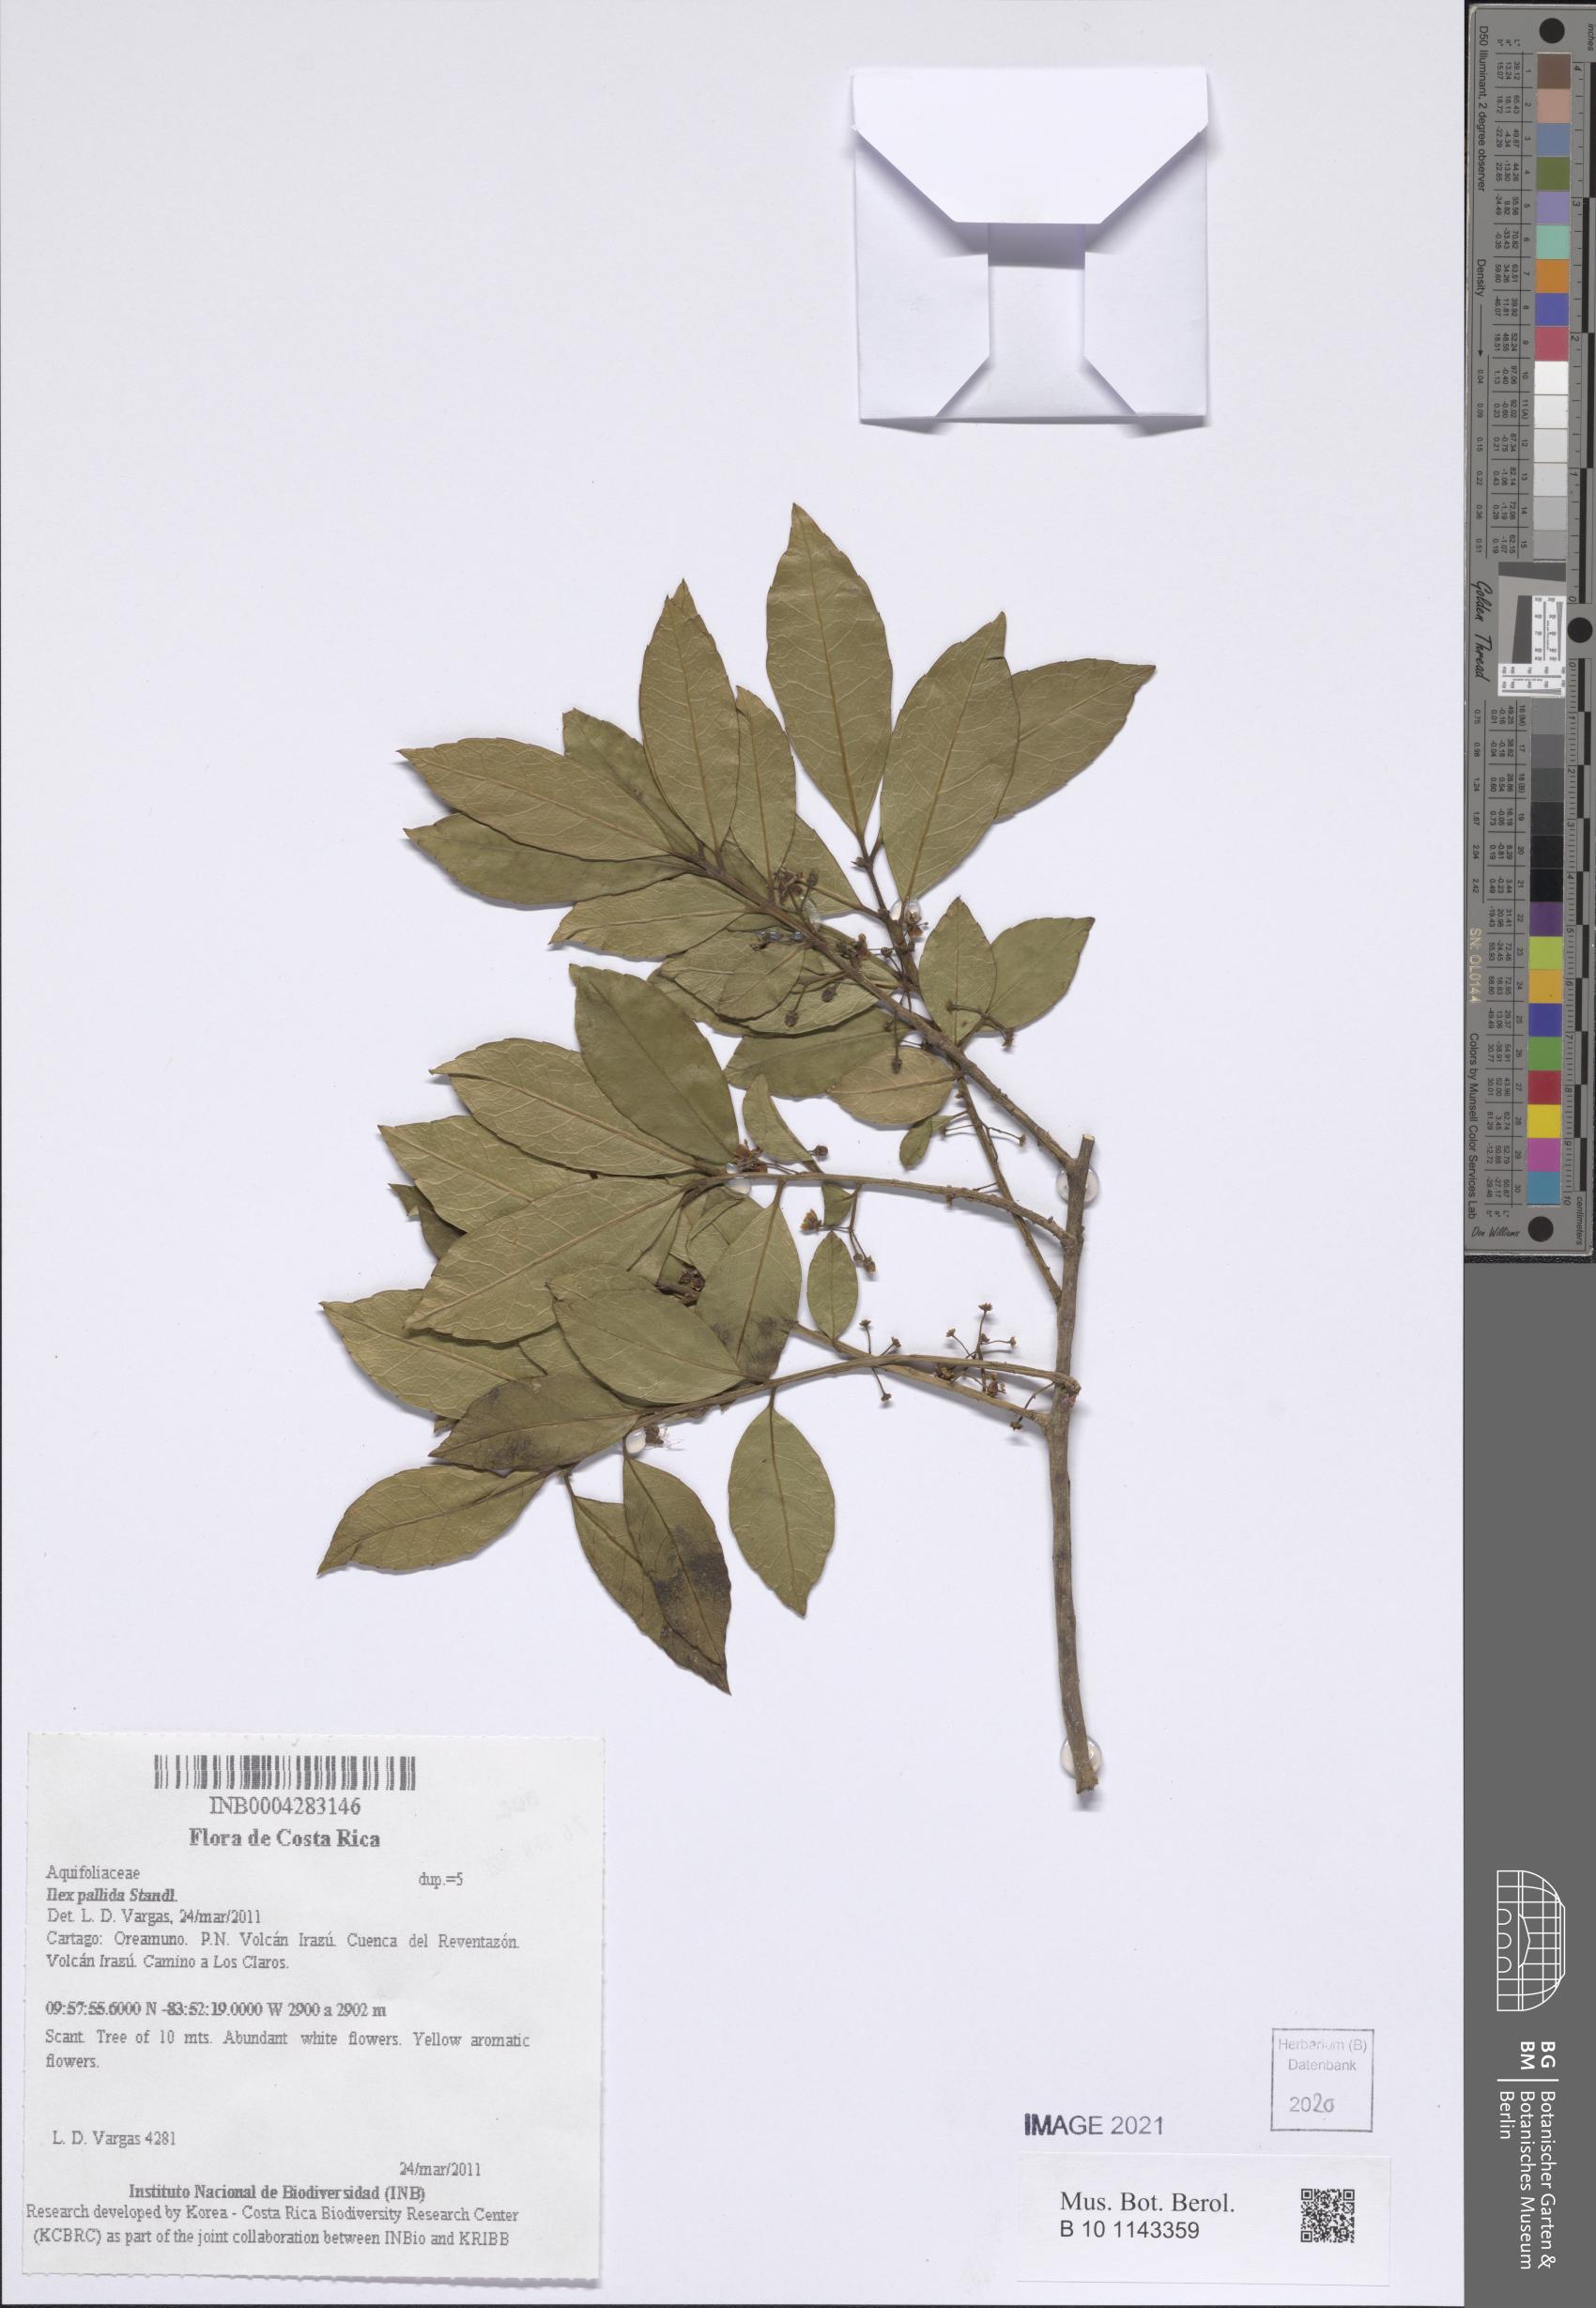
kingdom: Plantae
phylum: Tracheophyta
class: Magnoliopsida
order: Aquifoliales
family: Aquifoliaceae
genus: Ilex
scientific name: Ilex pallida
